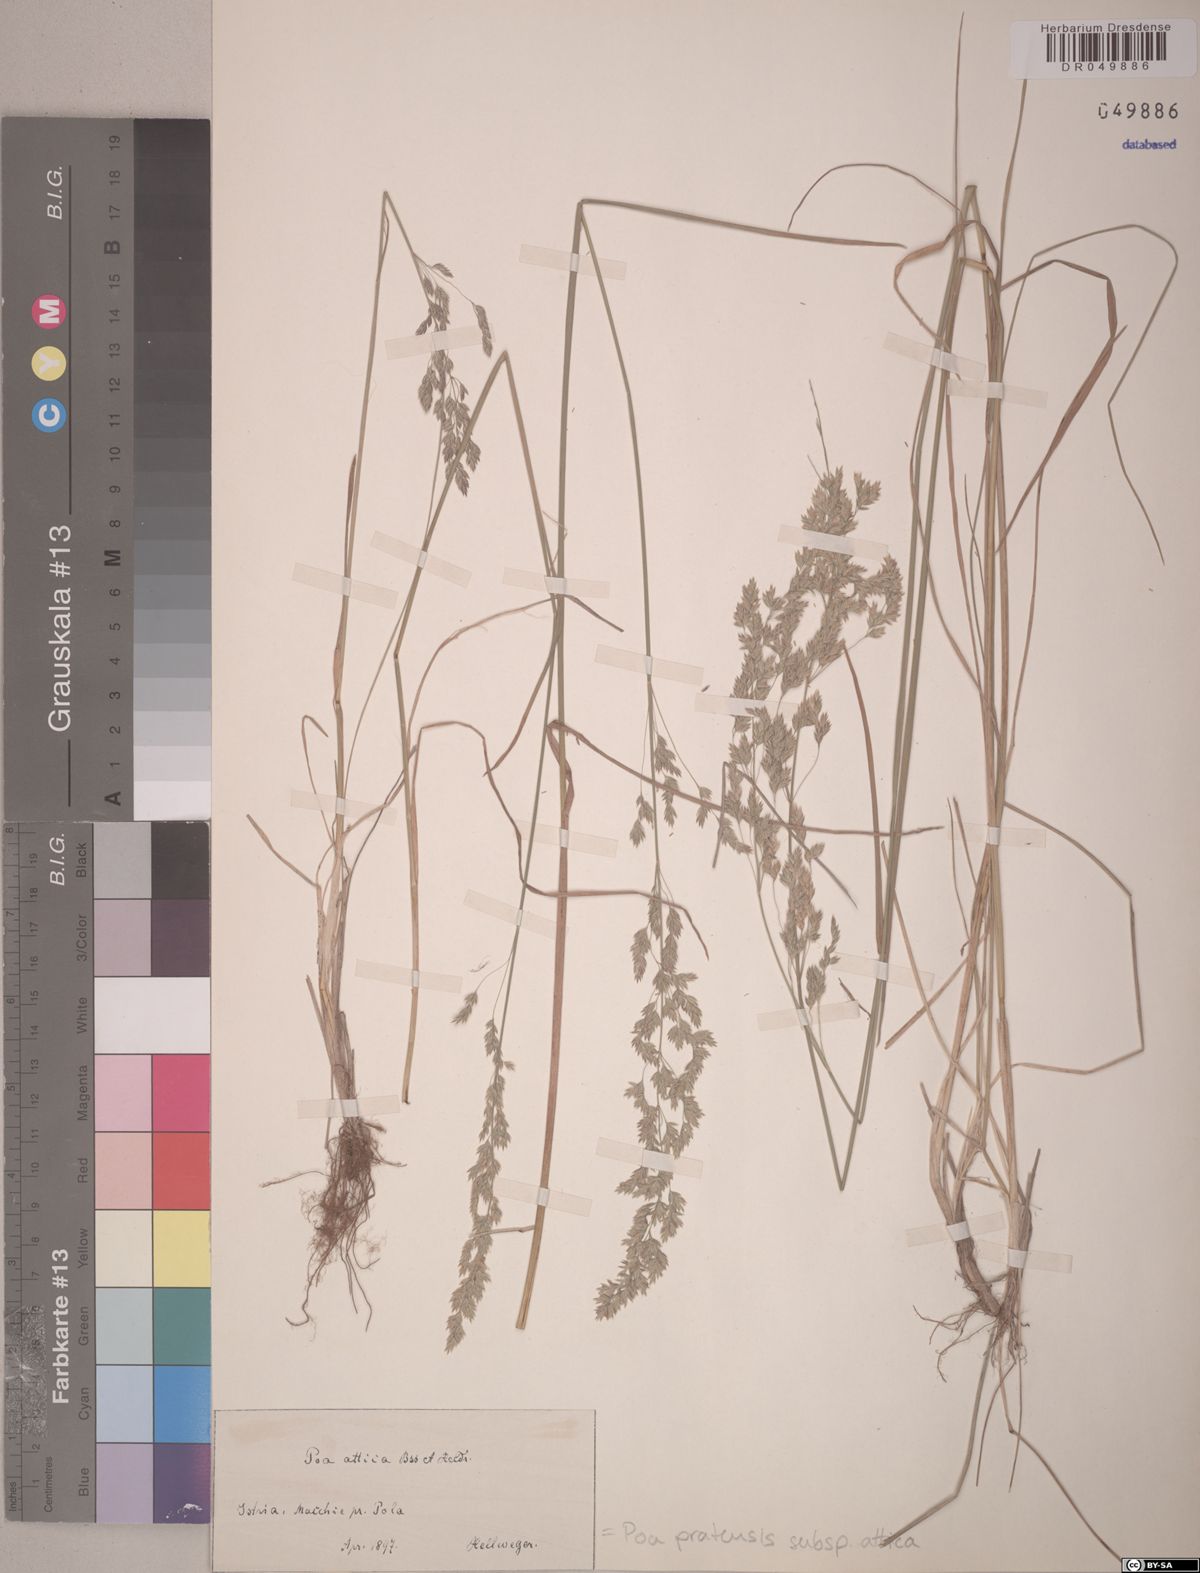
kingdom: Plantae
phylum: Tracheophyta
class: Liliopsida
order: Poales
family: Poaceae
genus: Poa
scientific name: Poa trivialis
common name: Rough bluegrass
